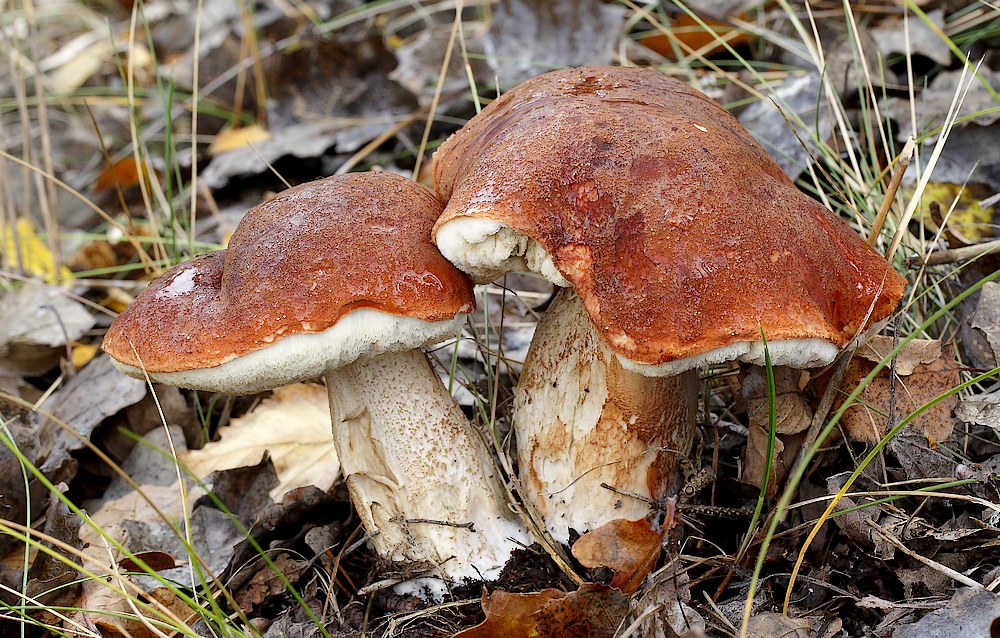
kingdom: Fungi
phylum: Basidiomycota
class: Agaricomycetes
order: Boletales
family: Boletaceae
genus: Leccinum
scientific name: Leccinum aurantiacum
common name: rustrød skælrørhat
